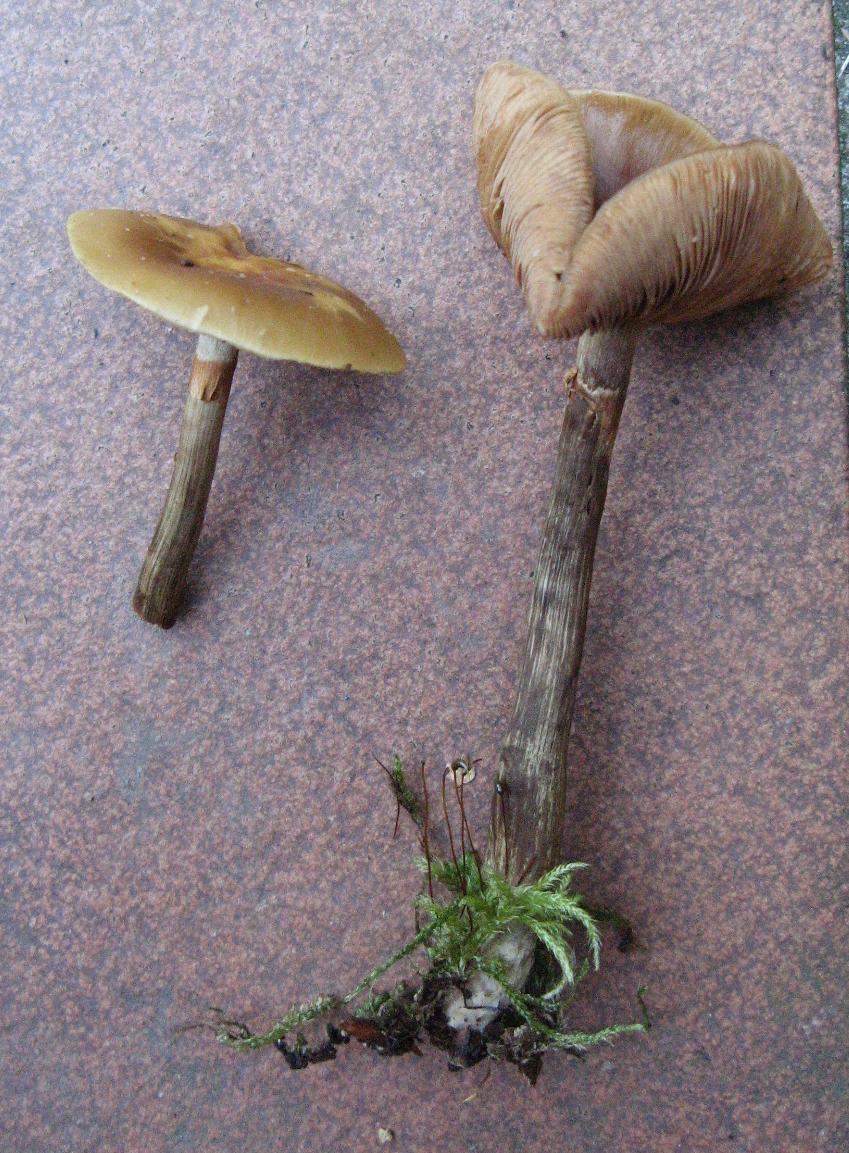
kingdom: Fungi
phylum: Basidiomycota
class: Agaricomycetes
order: Agaricales
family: Hymenogastraceae
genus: Galerina
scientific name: Galerina marginata
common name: randbæltet hjelmhat
